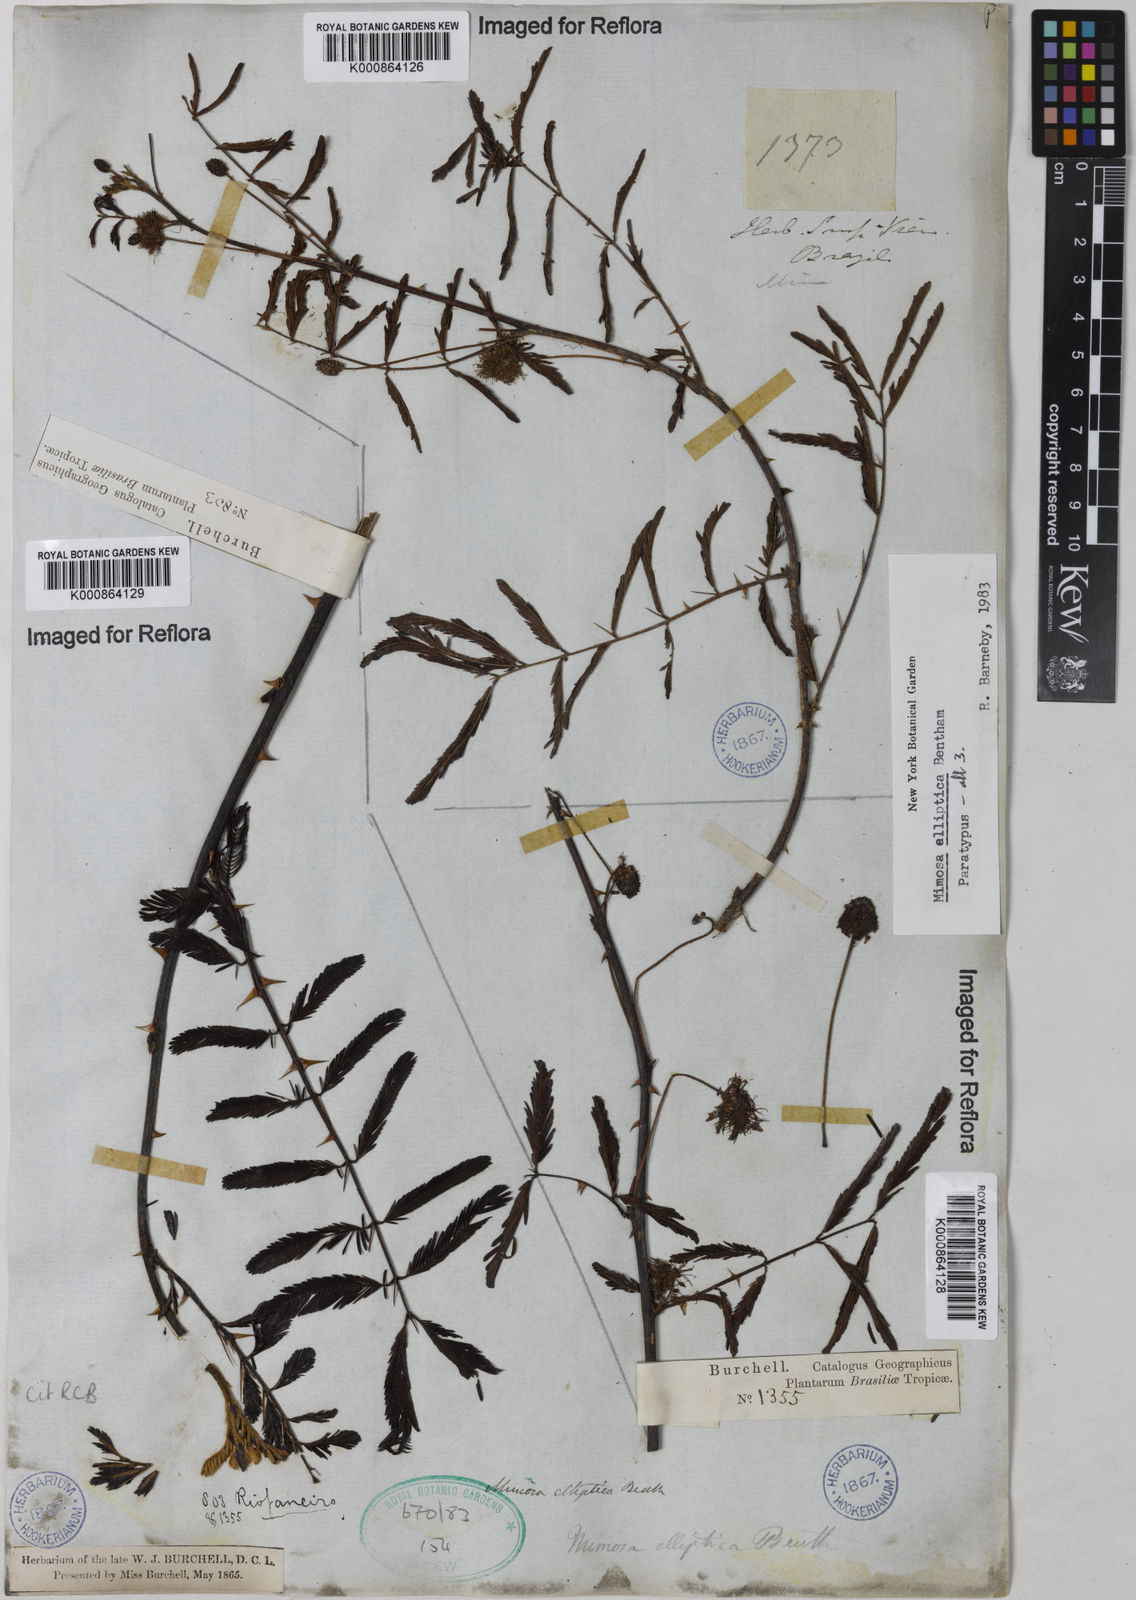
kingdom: Plantae
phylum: Tracheophyta
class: Magnoliopsida
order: Fabales
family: Fabaceae
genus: Mimosa
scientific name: Mimosa elliptica
